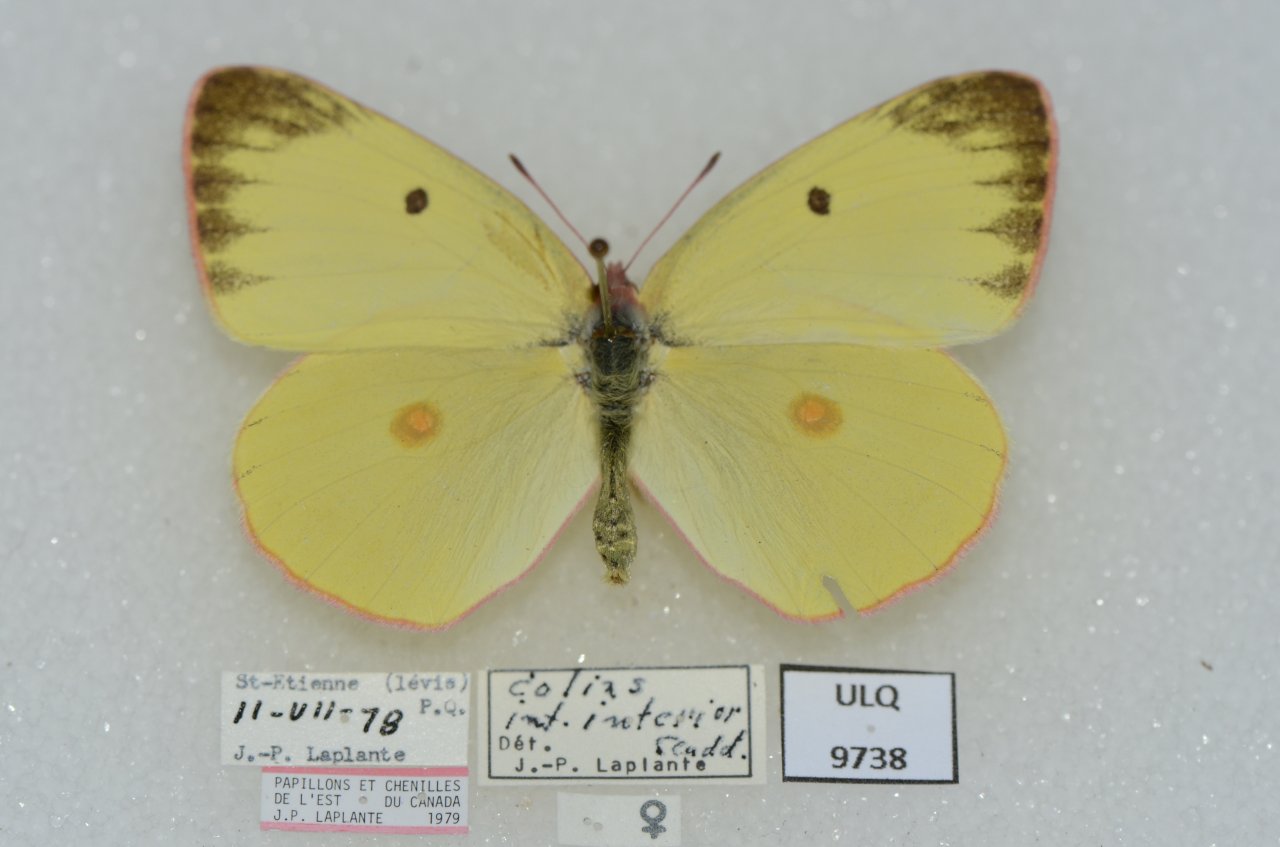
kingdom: Animalia
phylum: Arthropoda
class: Insecta
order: Lepidoptera
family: Pieridae
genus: Colias
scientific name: Colias interior
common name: Pink-edged Sulphur
